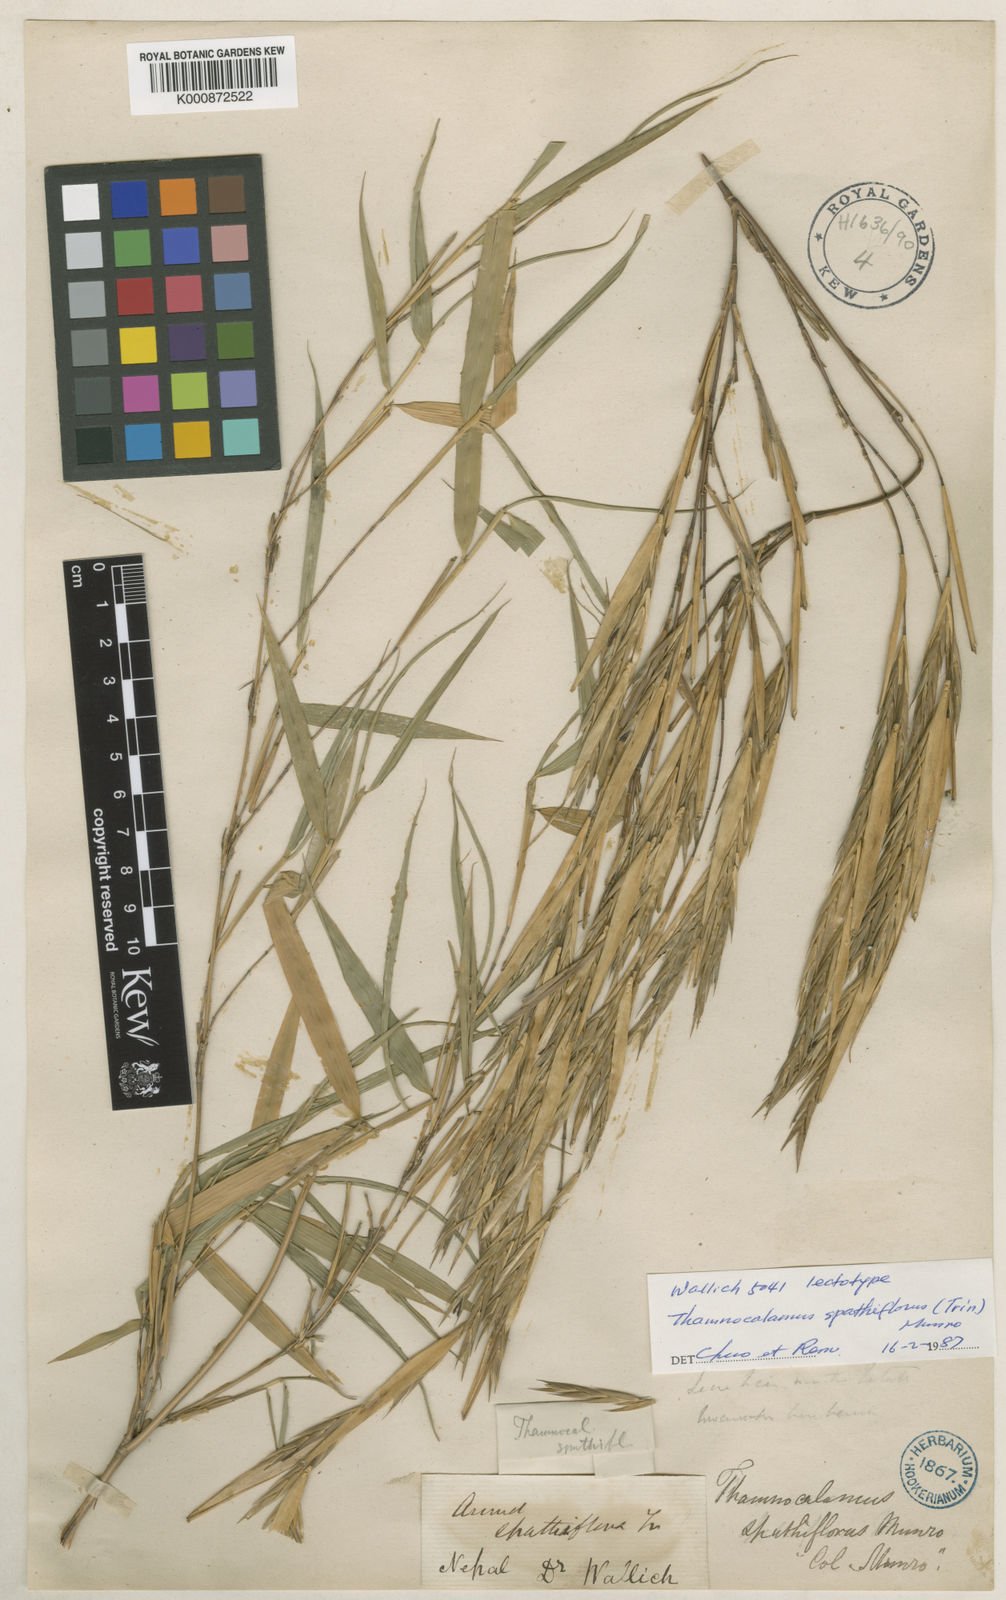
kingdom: Plantae
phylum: Tracheophyta
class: Liliopsida
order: Poales
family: Poaceae
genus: Thamnocalamus
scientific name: Thamnocalamus spathiflorus
